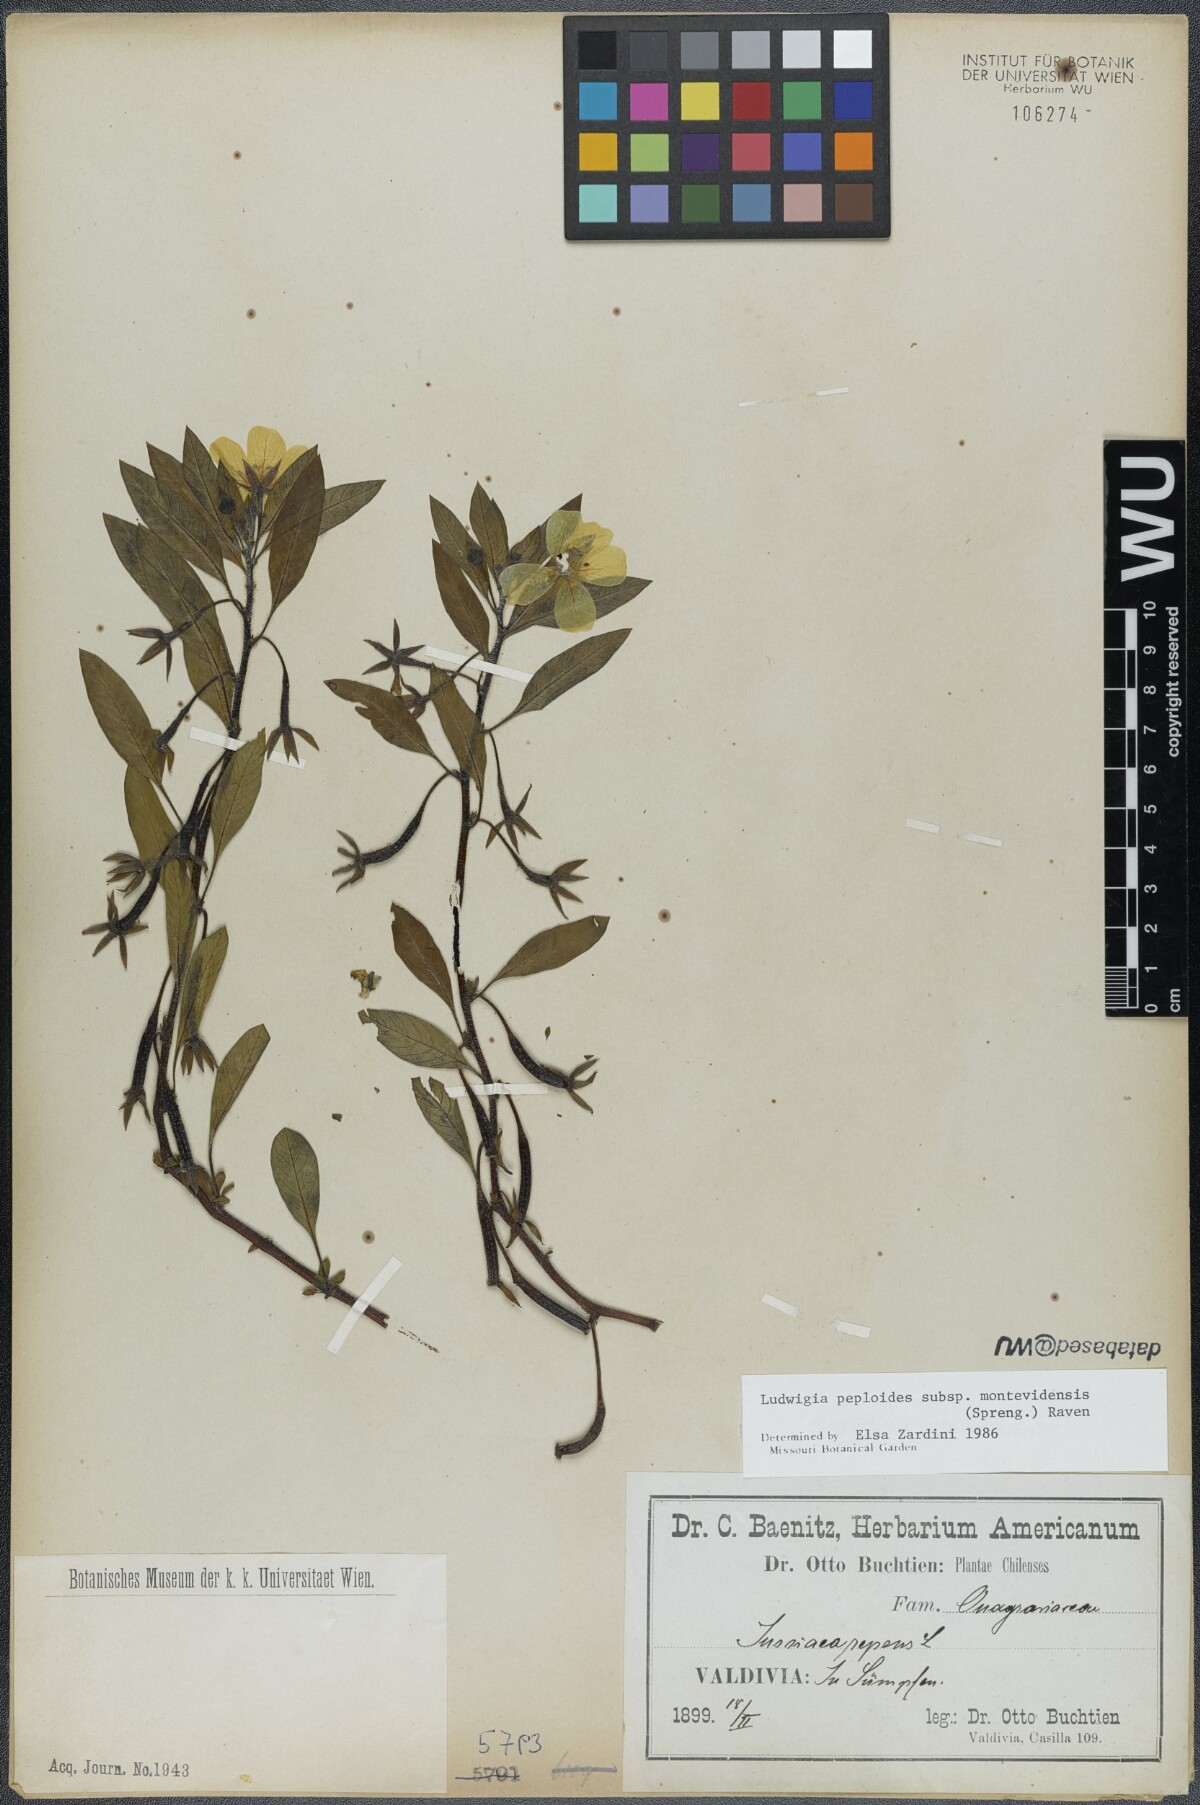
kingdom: Plantae
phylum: Tracheophyta
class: Magnoliopsida
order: Myrtales
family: Onagraceae
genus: Ludwigia
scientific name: Ludwigia peploides
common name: Floating primrose-willow
